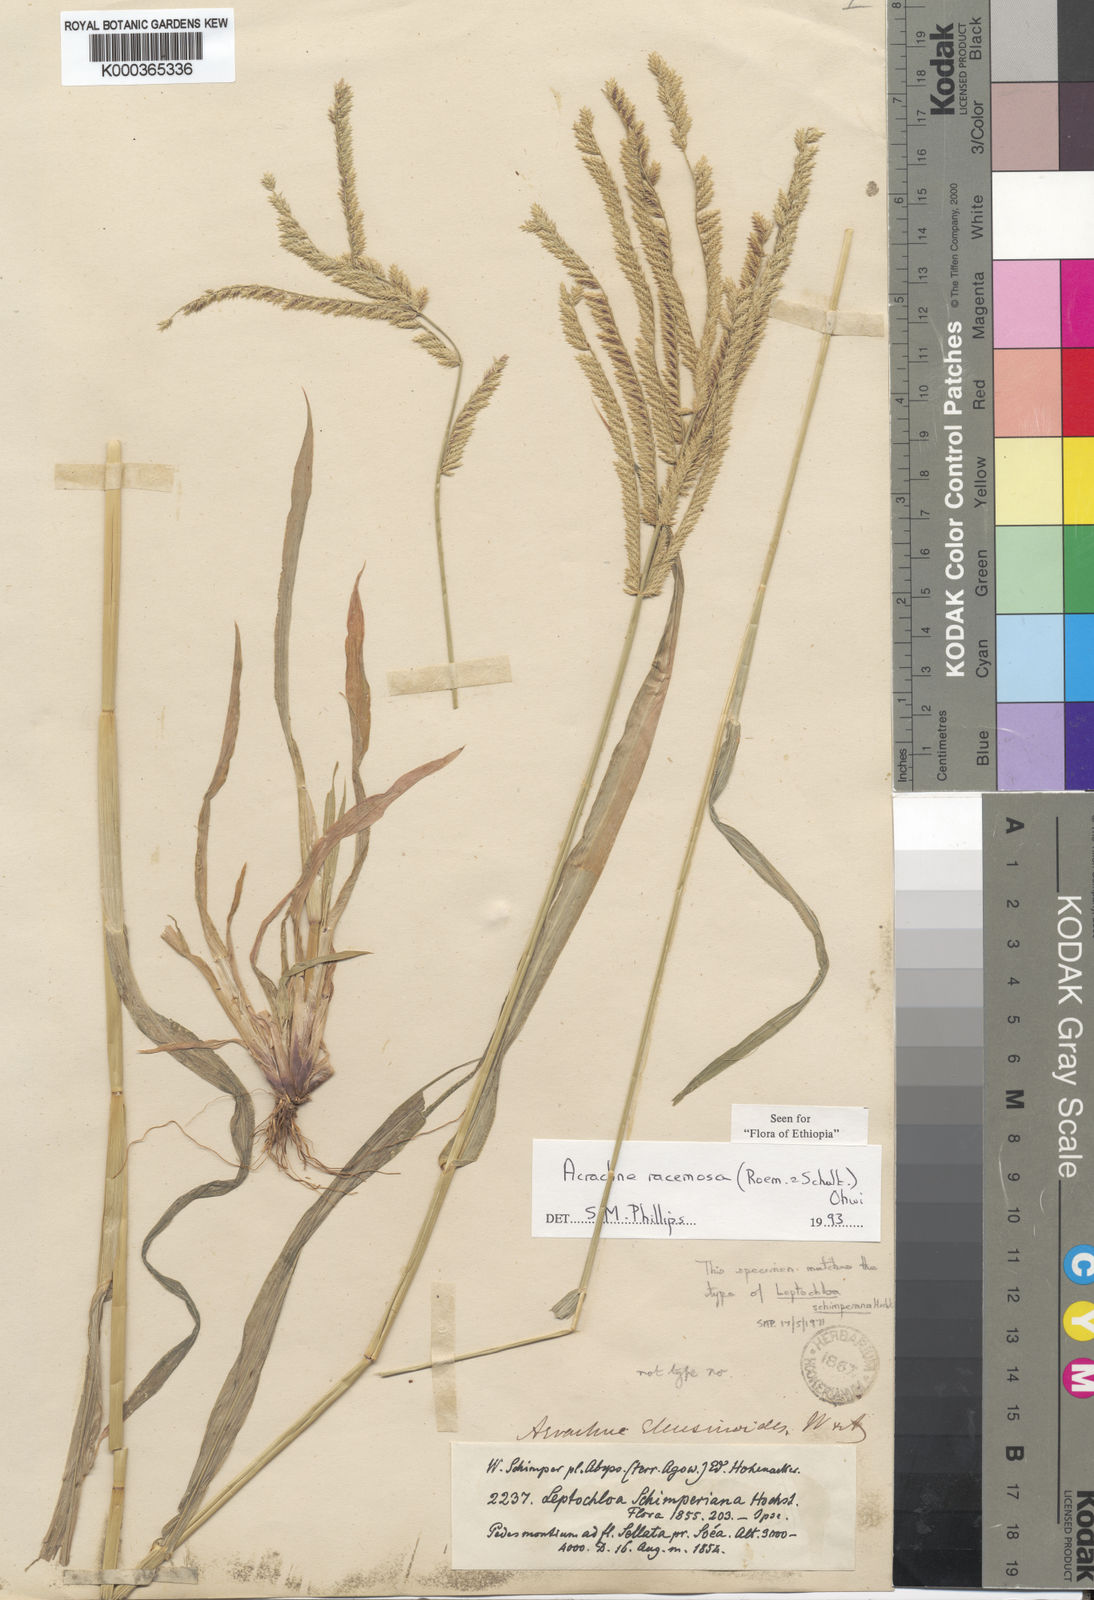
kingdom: Plantae
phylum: Tracheophyta
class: Liliopsida
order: Poales
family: Poaceae
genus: Acrachne
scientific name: Acrachne racemosa
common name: Goosegrass
